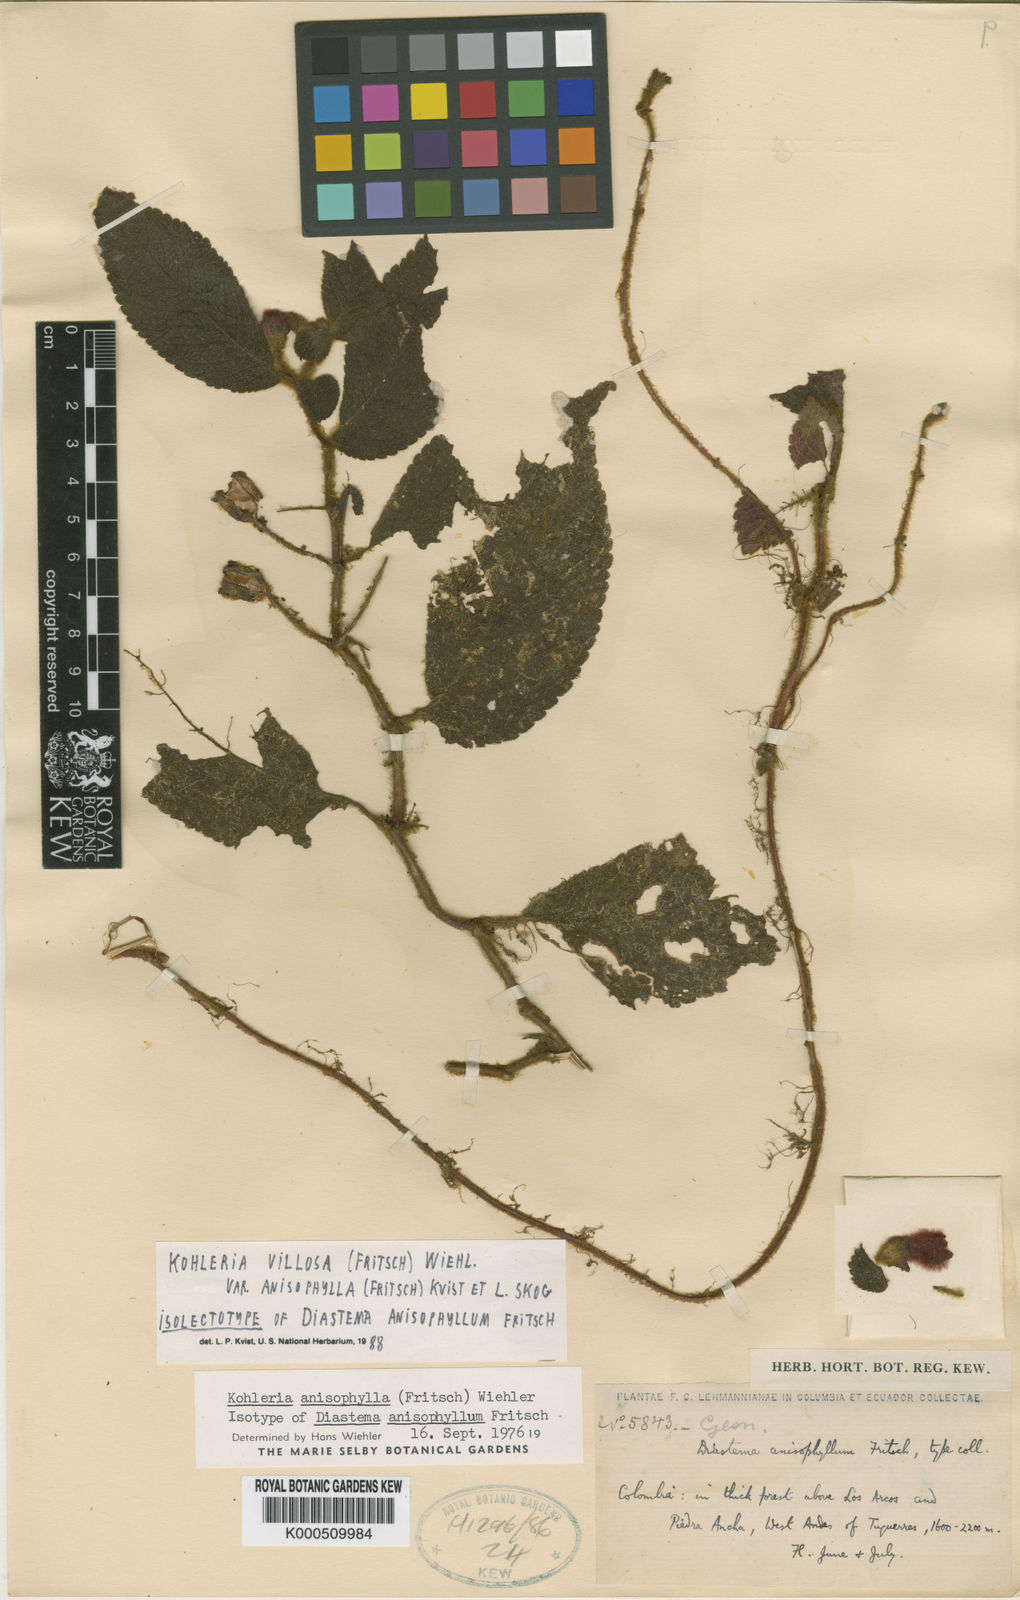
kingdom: Plantae
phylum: Tracheophyta
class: Magnoliopsida
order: Lamiales
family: Gesneriaceae
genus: Kohleria
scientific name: Kohleria villosa
